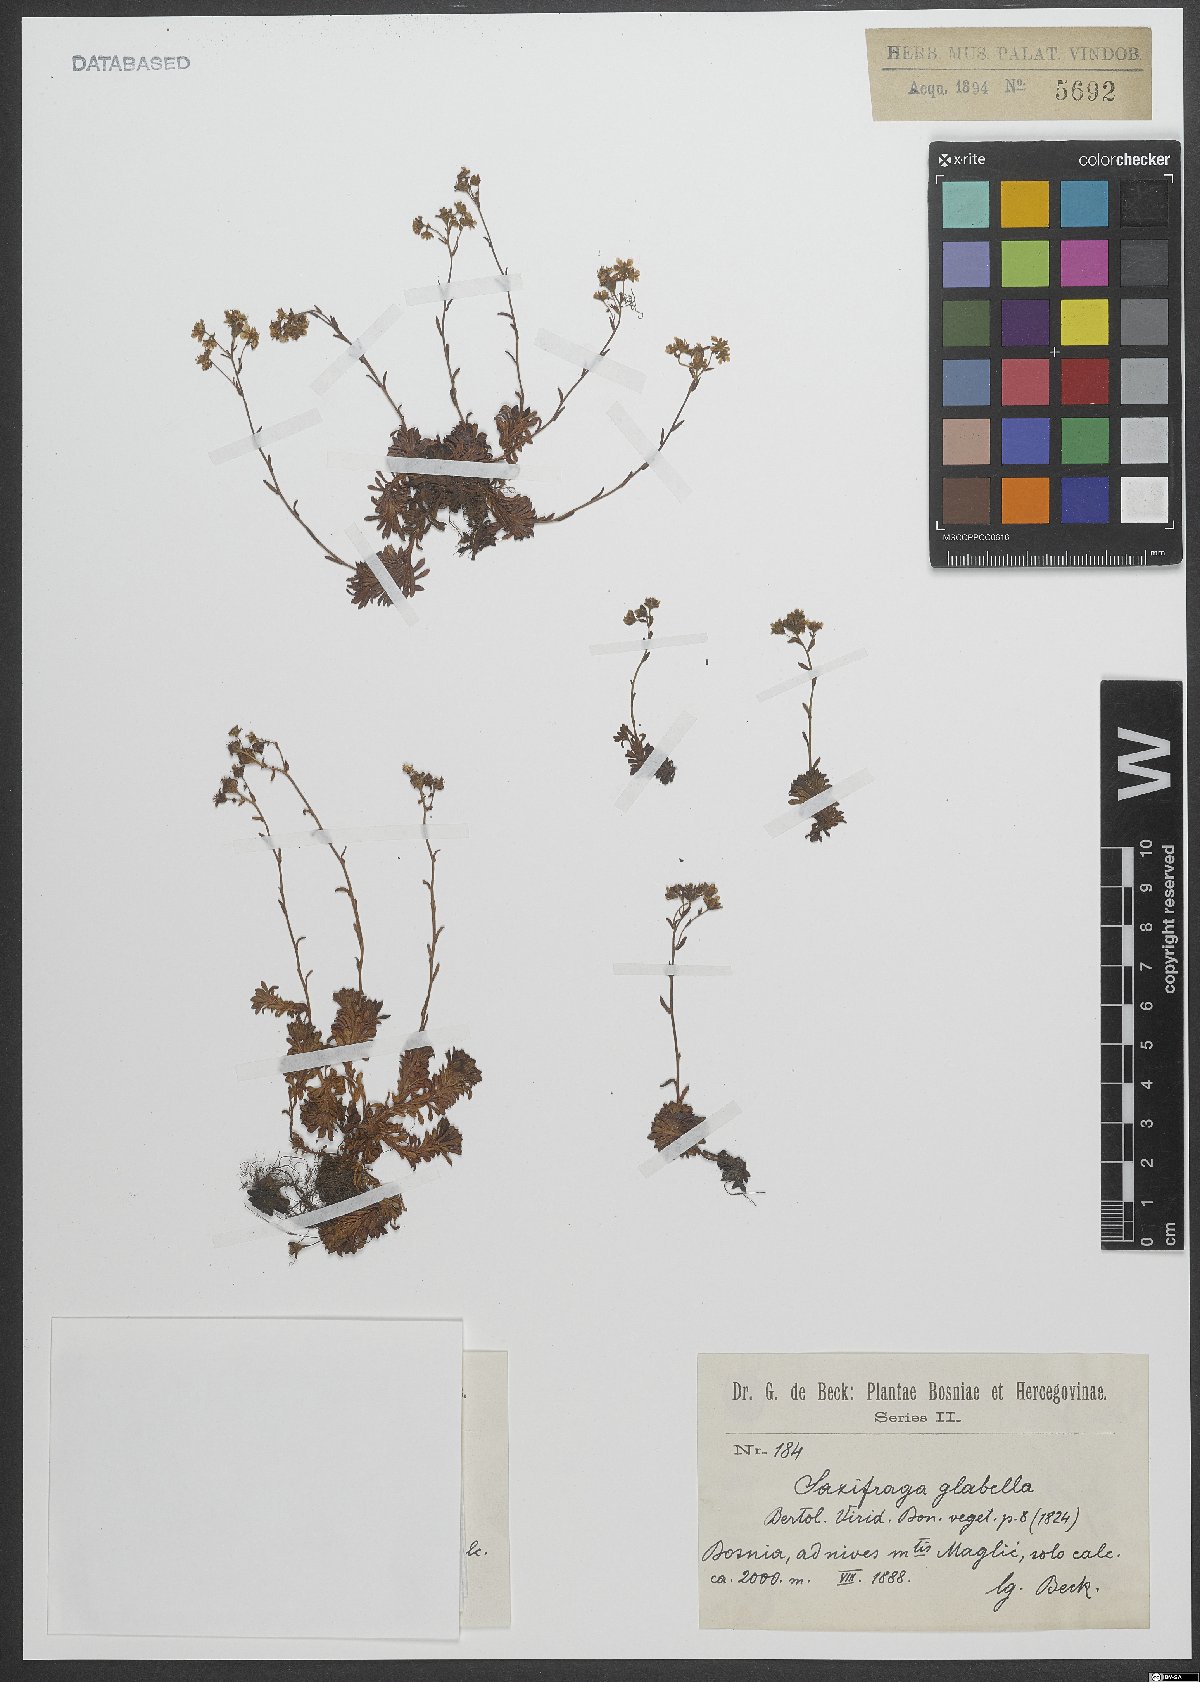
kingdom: Plantae
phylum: Tracheophyta
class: Magnoliopsida
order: Saxifragales
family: Saxifragaceae
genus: Saxifraga
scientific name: Saxifraga glabella
